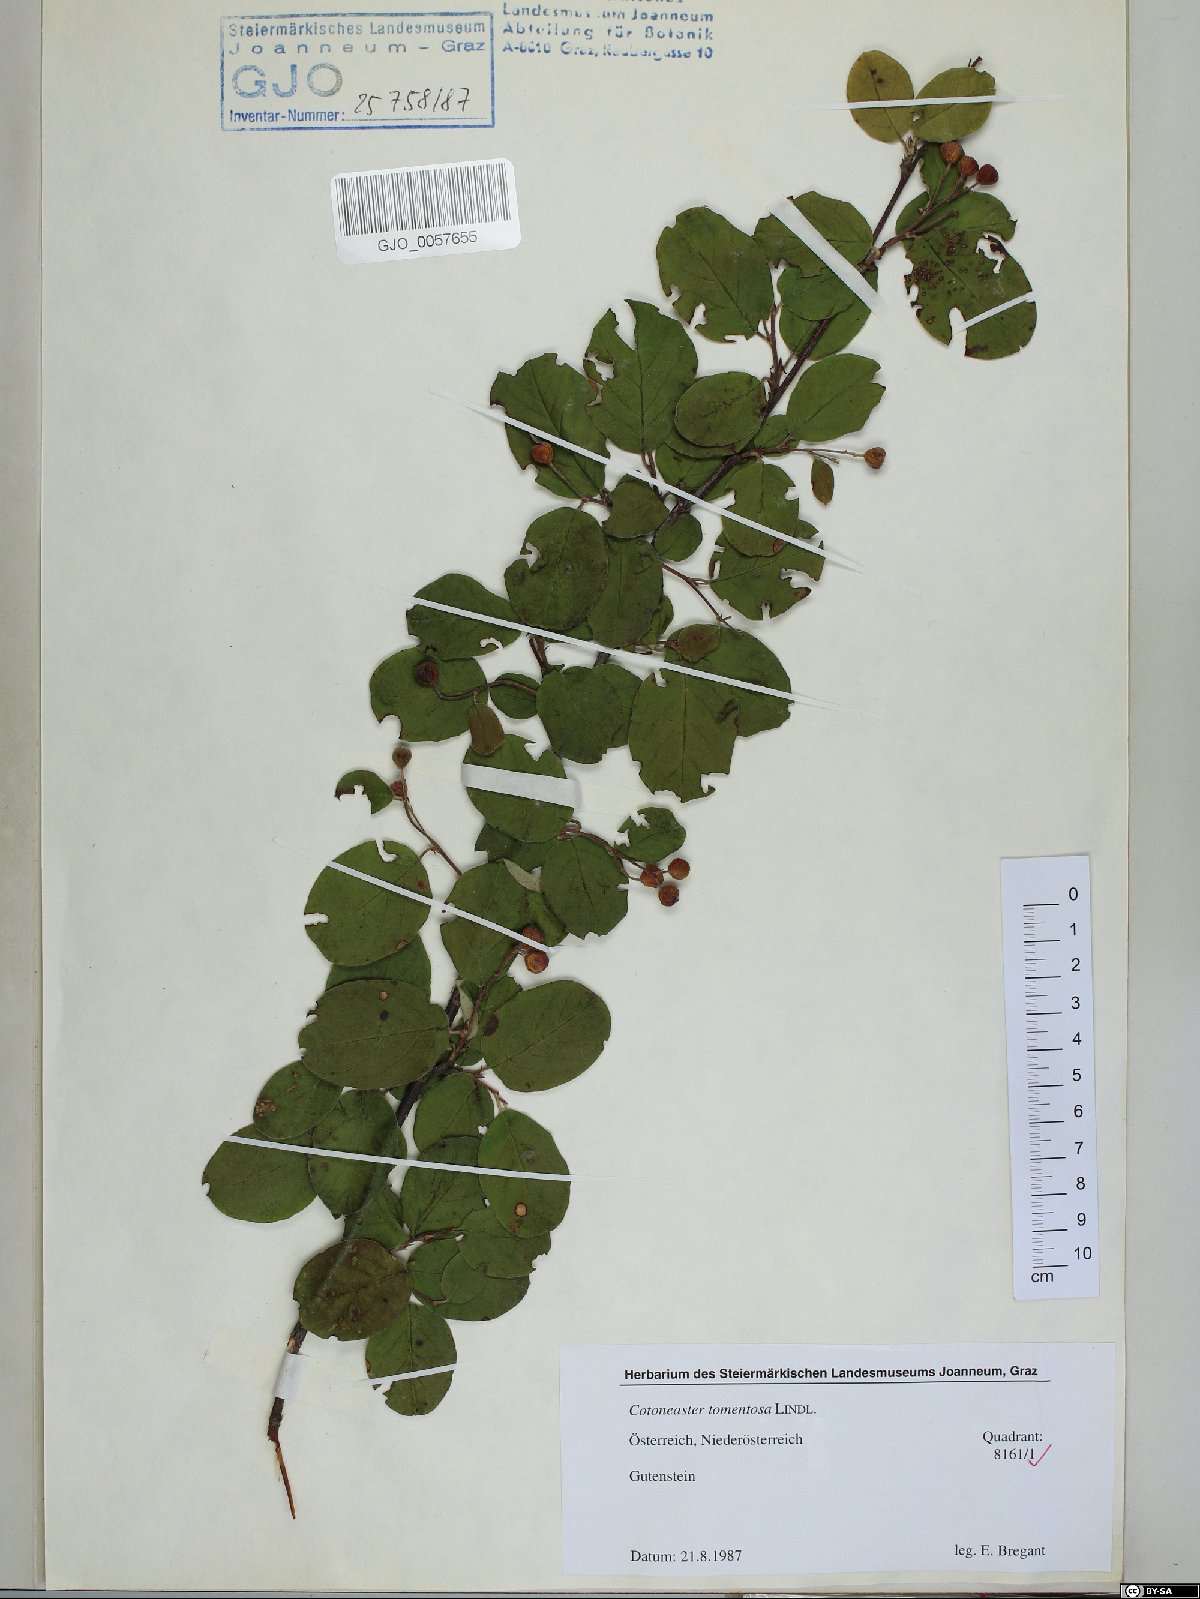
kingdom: Plantae
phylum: Tracheophyta
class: Magnoliopsida
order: Rosales
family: Rosaceae
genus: Cotoneaster
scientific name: Cotoneaster tomentosus
